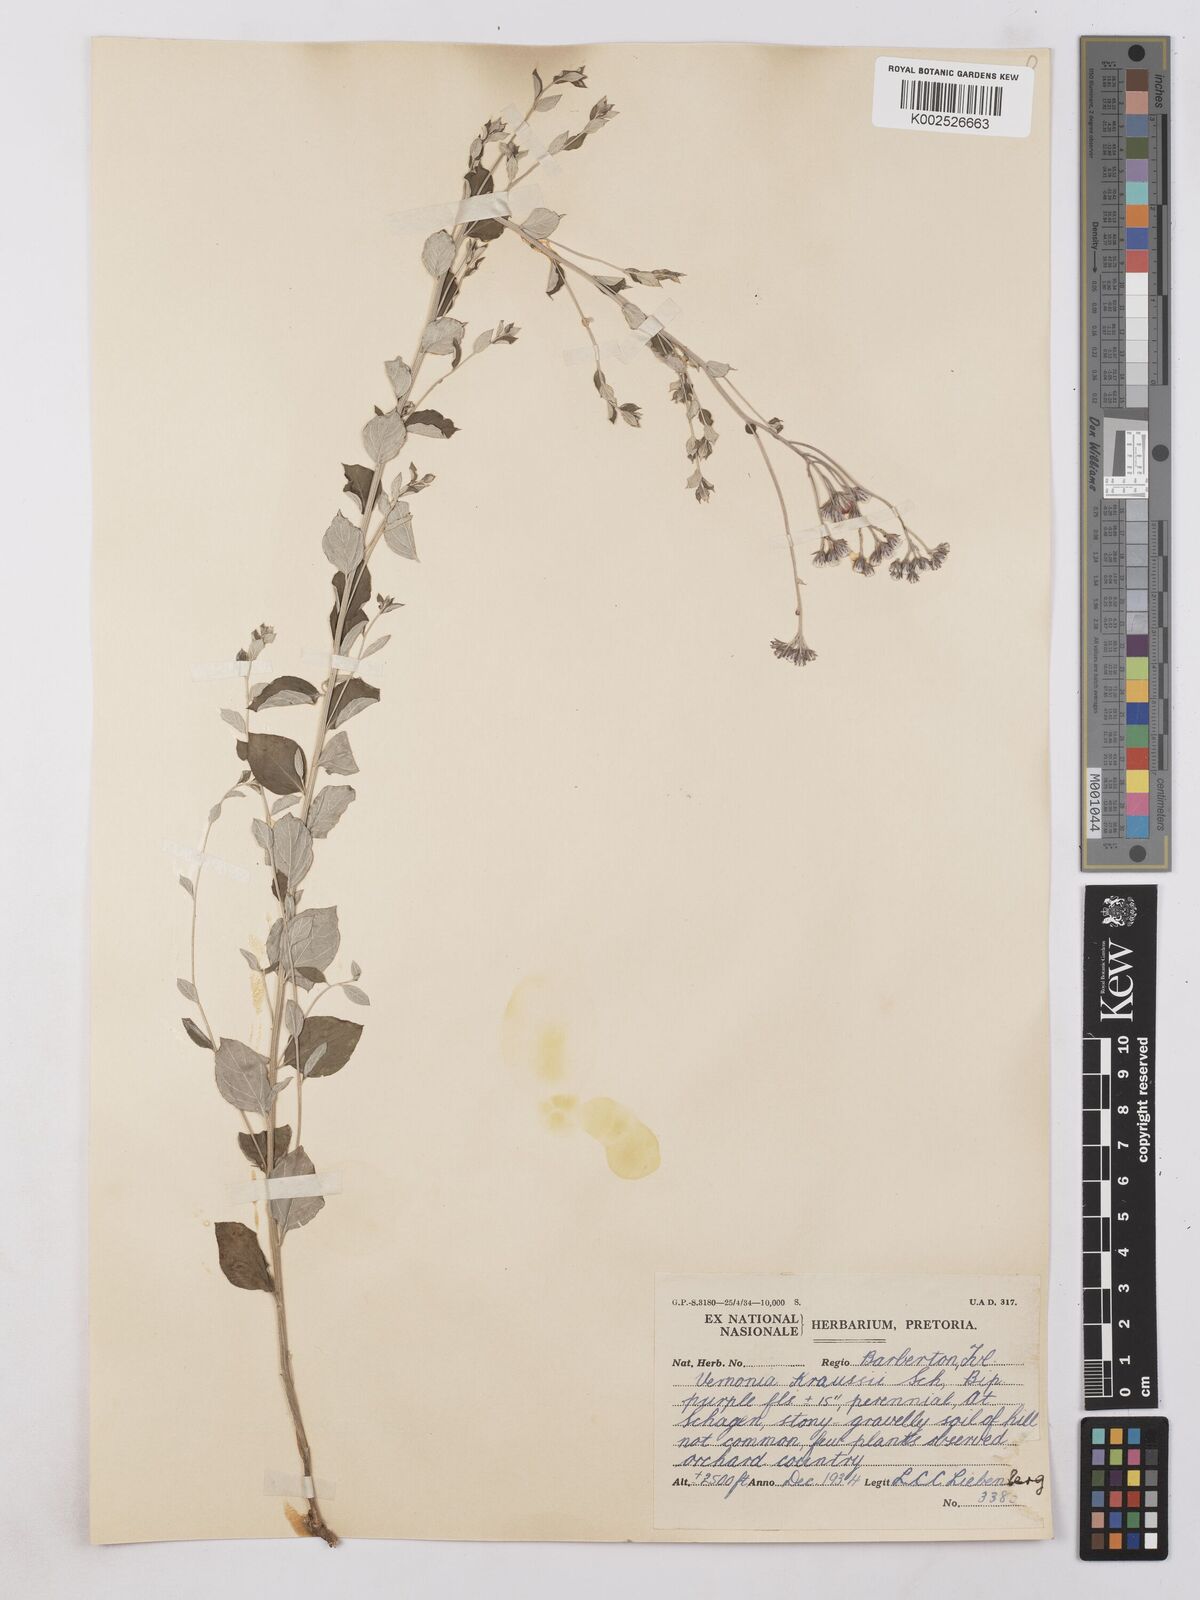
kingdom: Plantae
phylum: Tracheophyta
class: Magnoliopsida
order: Asterales
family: Asteraceae
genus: Hilliardiella
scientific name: Hilliardiella oligocephala
